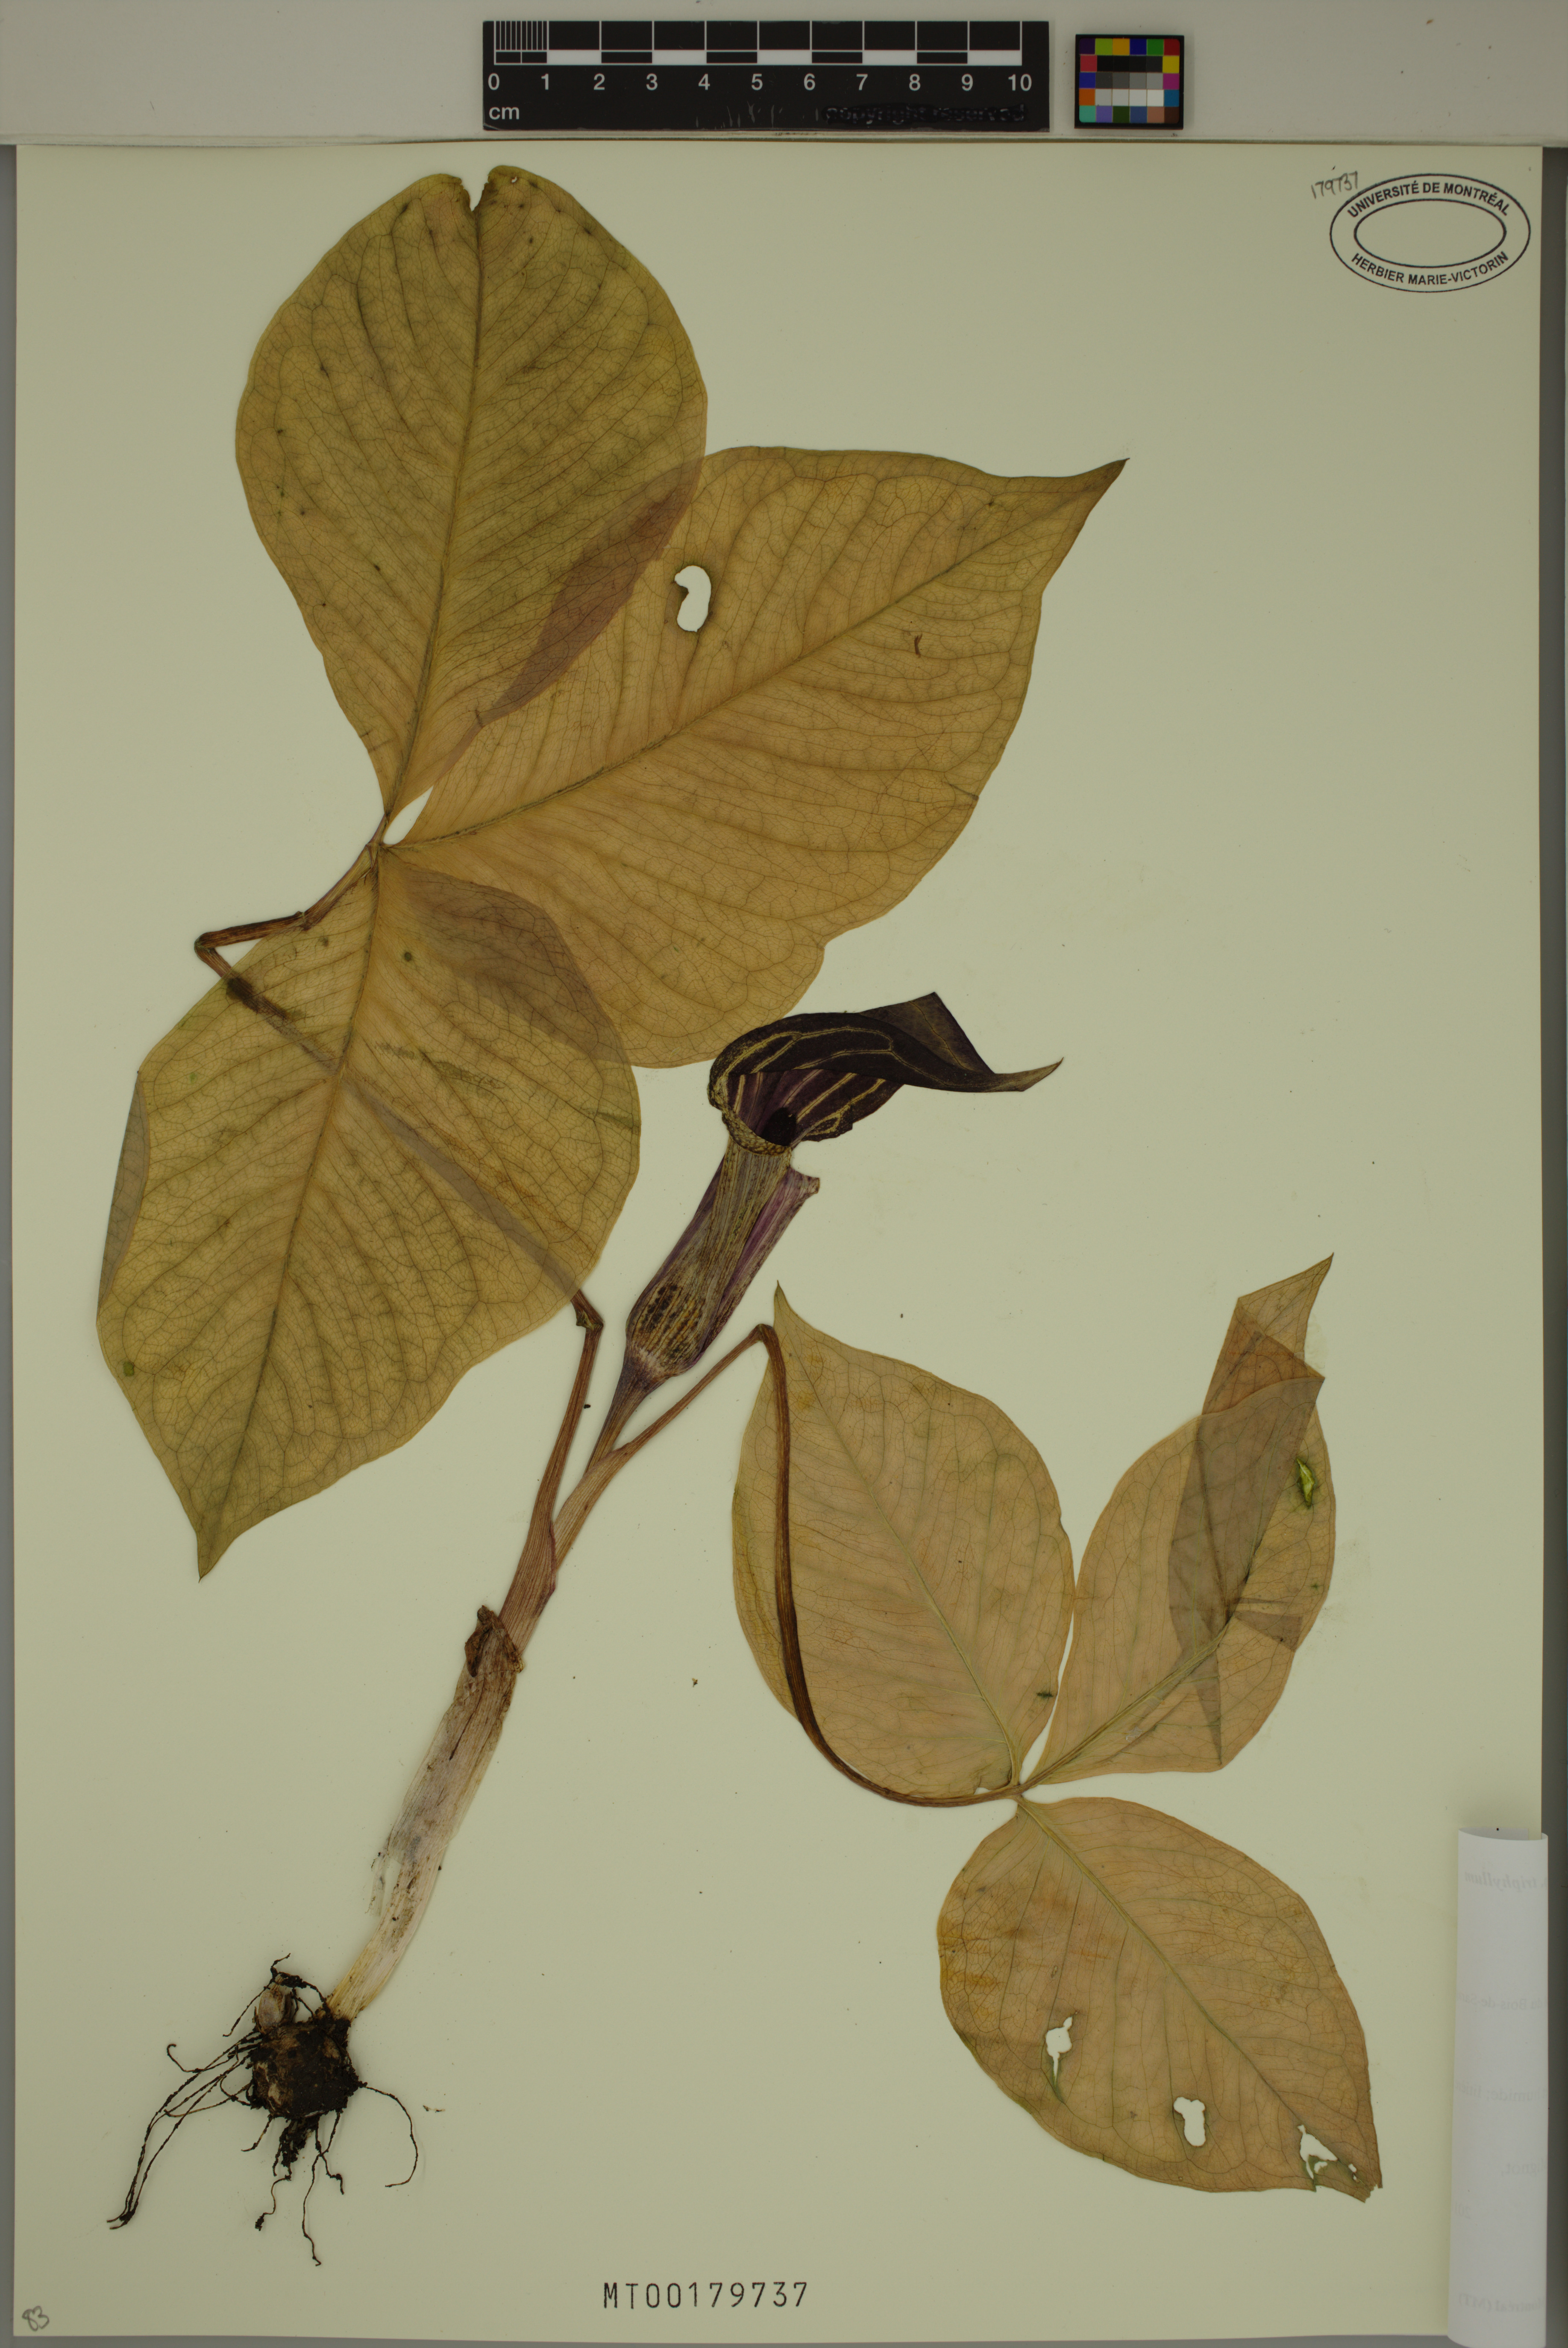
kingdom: Plantae
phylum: Tracheophyta
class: Liliopsida
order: Alismatales
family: Araceae
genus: Arisaema
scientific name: Arisaema triphyllum
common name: Jack-in-the-pulpit
